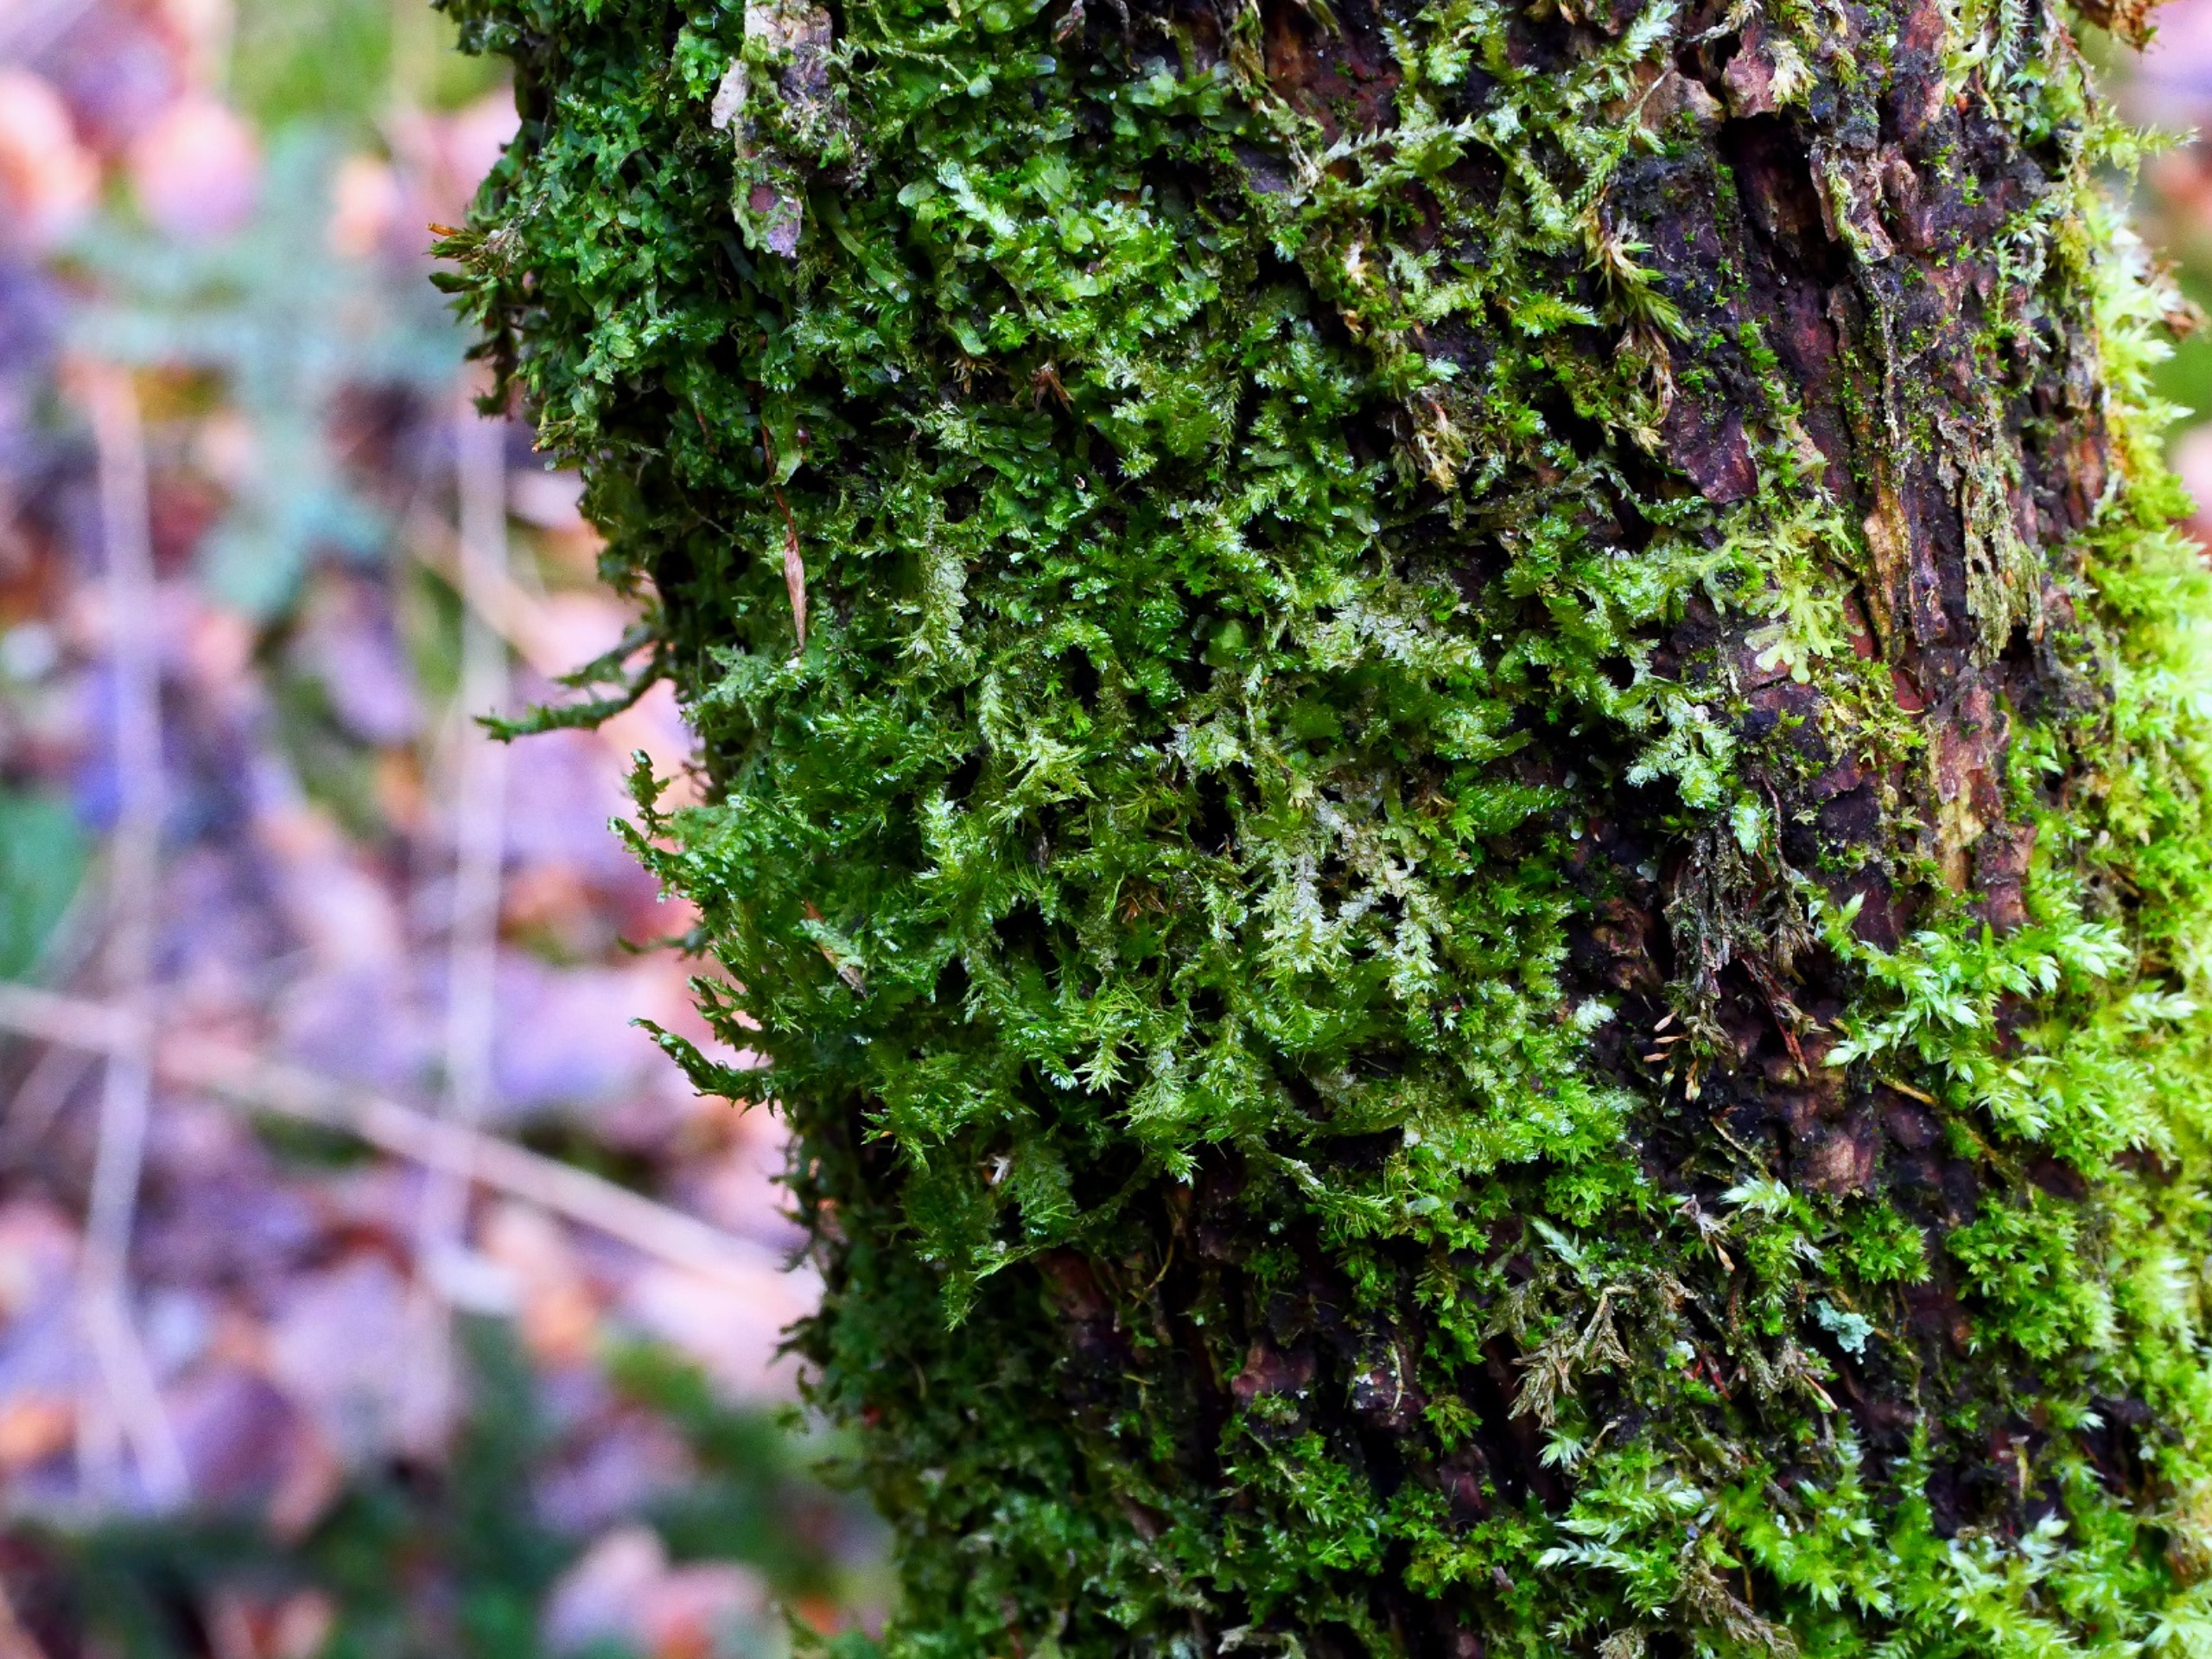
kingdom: Plantae
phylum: Bryophyta
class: Bryopsida
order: Hypnales
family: Neckeraceae
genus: Neckera
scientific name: Neckera pumila
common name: Lav fladmos
